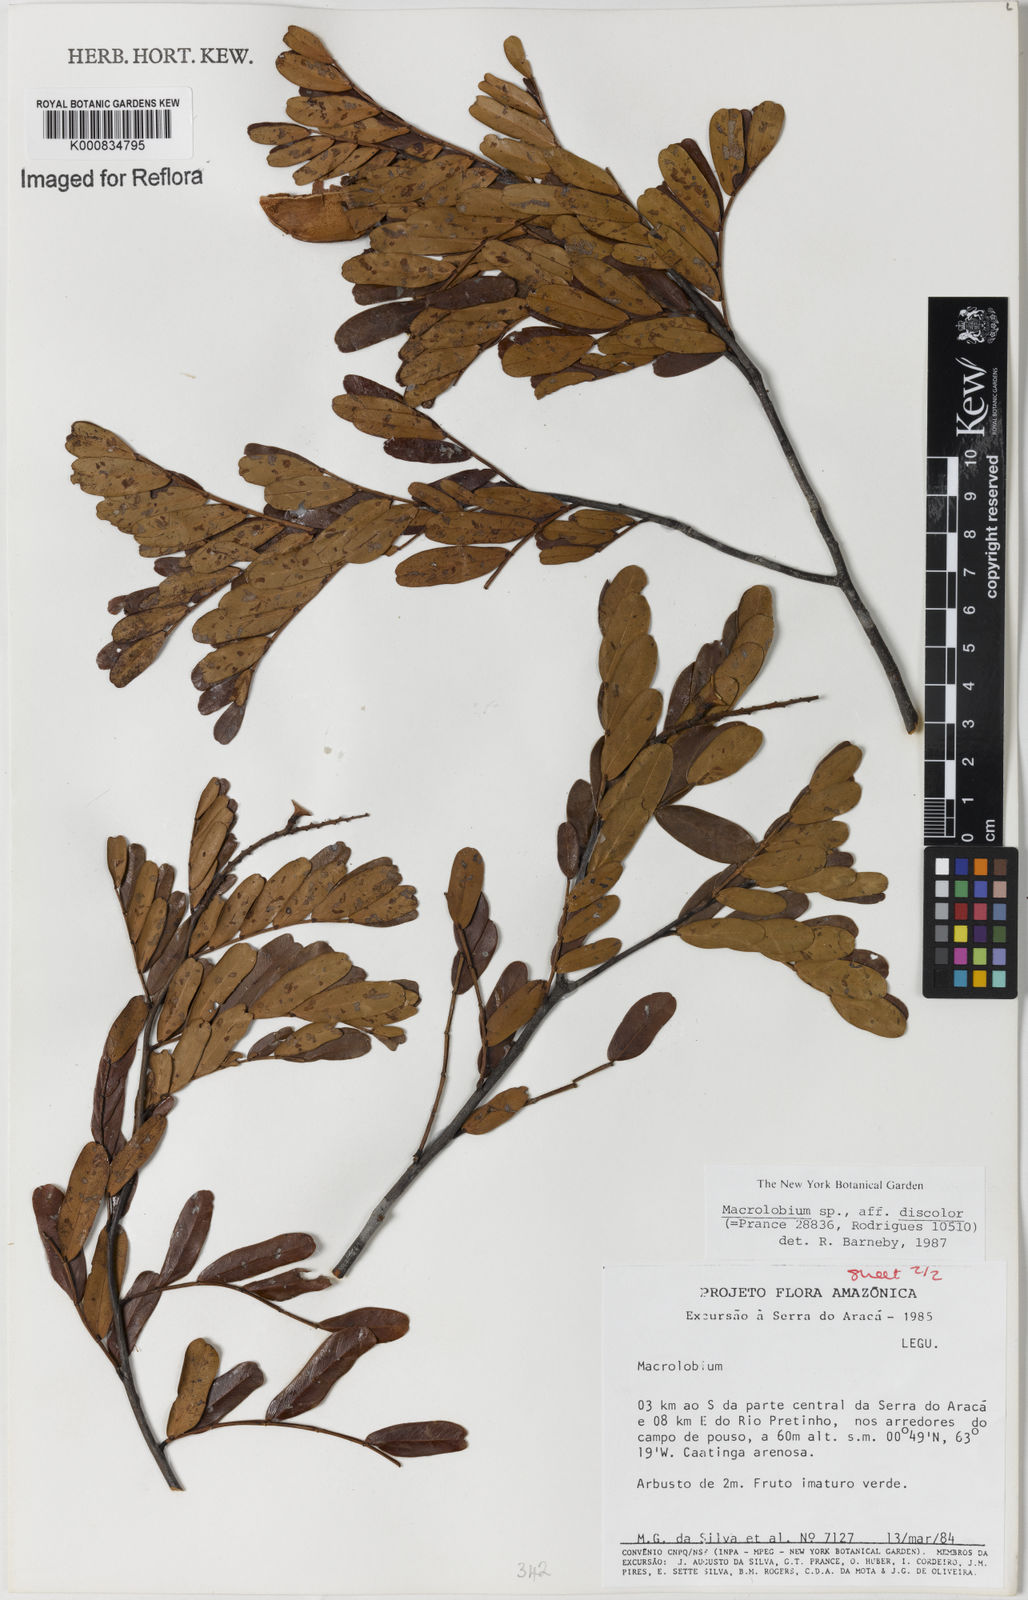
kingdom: Plantae
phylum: Tracheophyta
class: Magnoliopsida
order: Fabales
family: Fabaceae
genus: Macrolobium
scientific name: Macrolobium discolor
